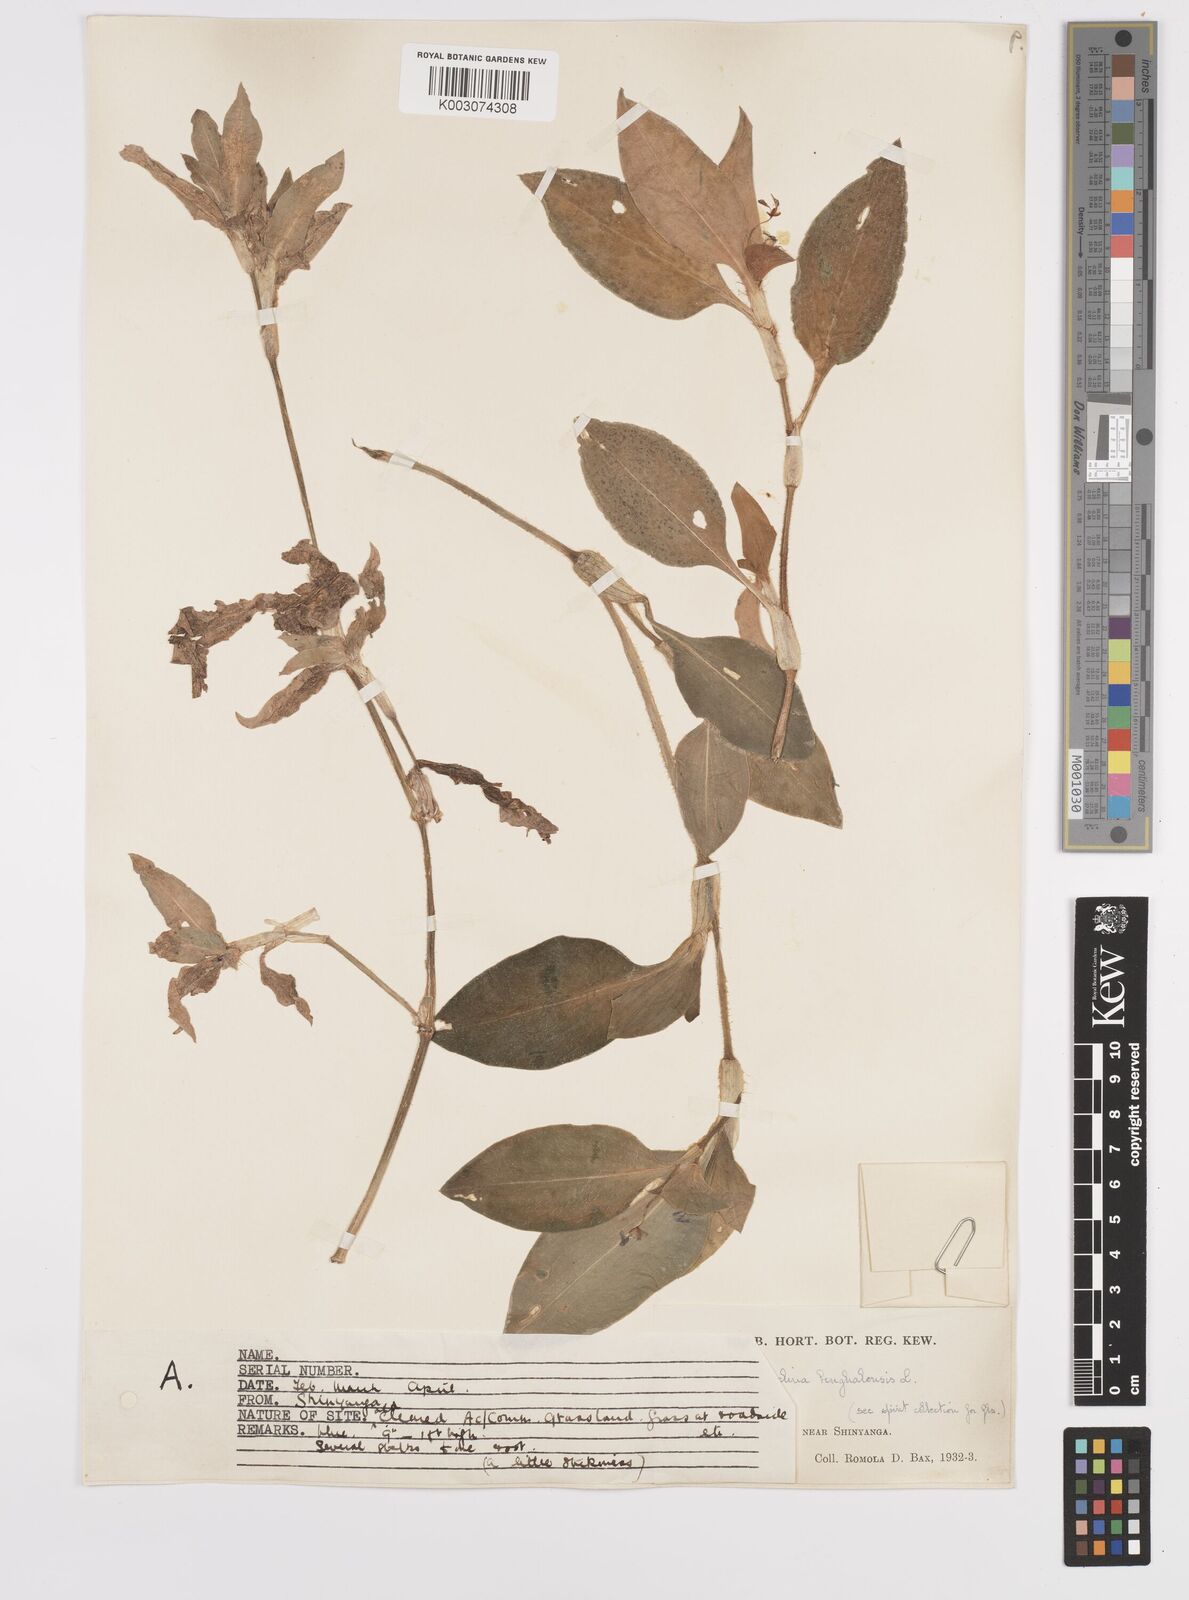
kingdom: Plantae
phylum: Tracheophyta
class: Liliopsida
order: Commelinales
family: Commelinaceae
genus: Commelina
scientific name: Commelina benghalensis
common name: Jio
